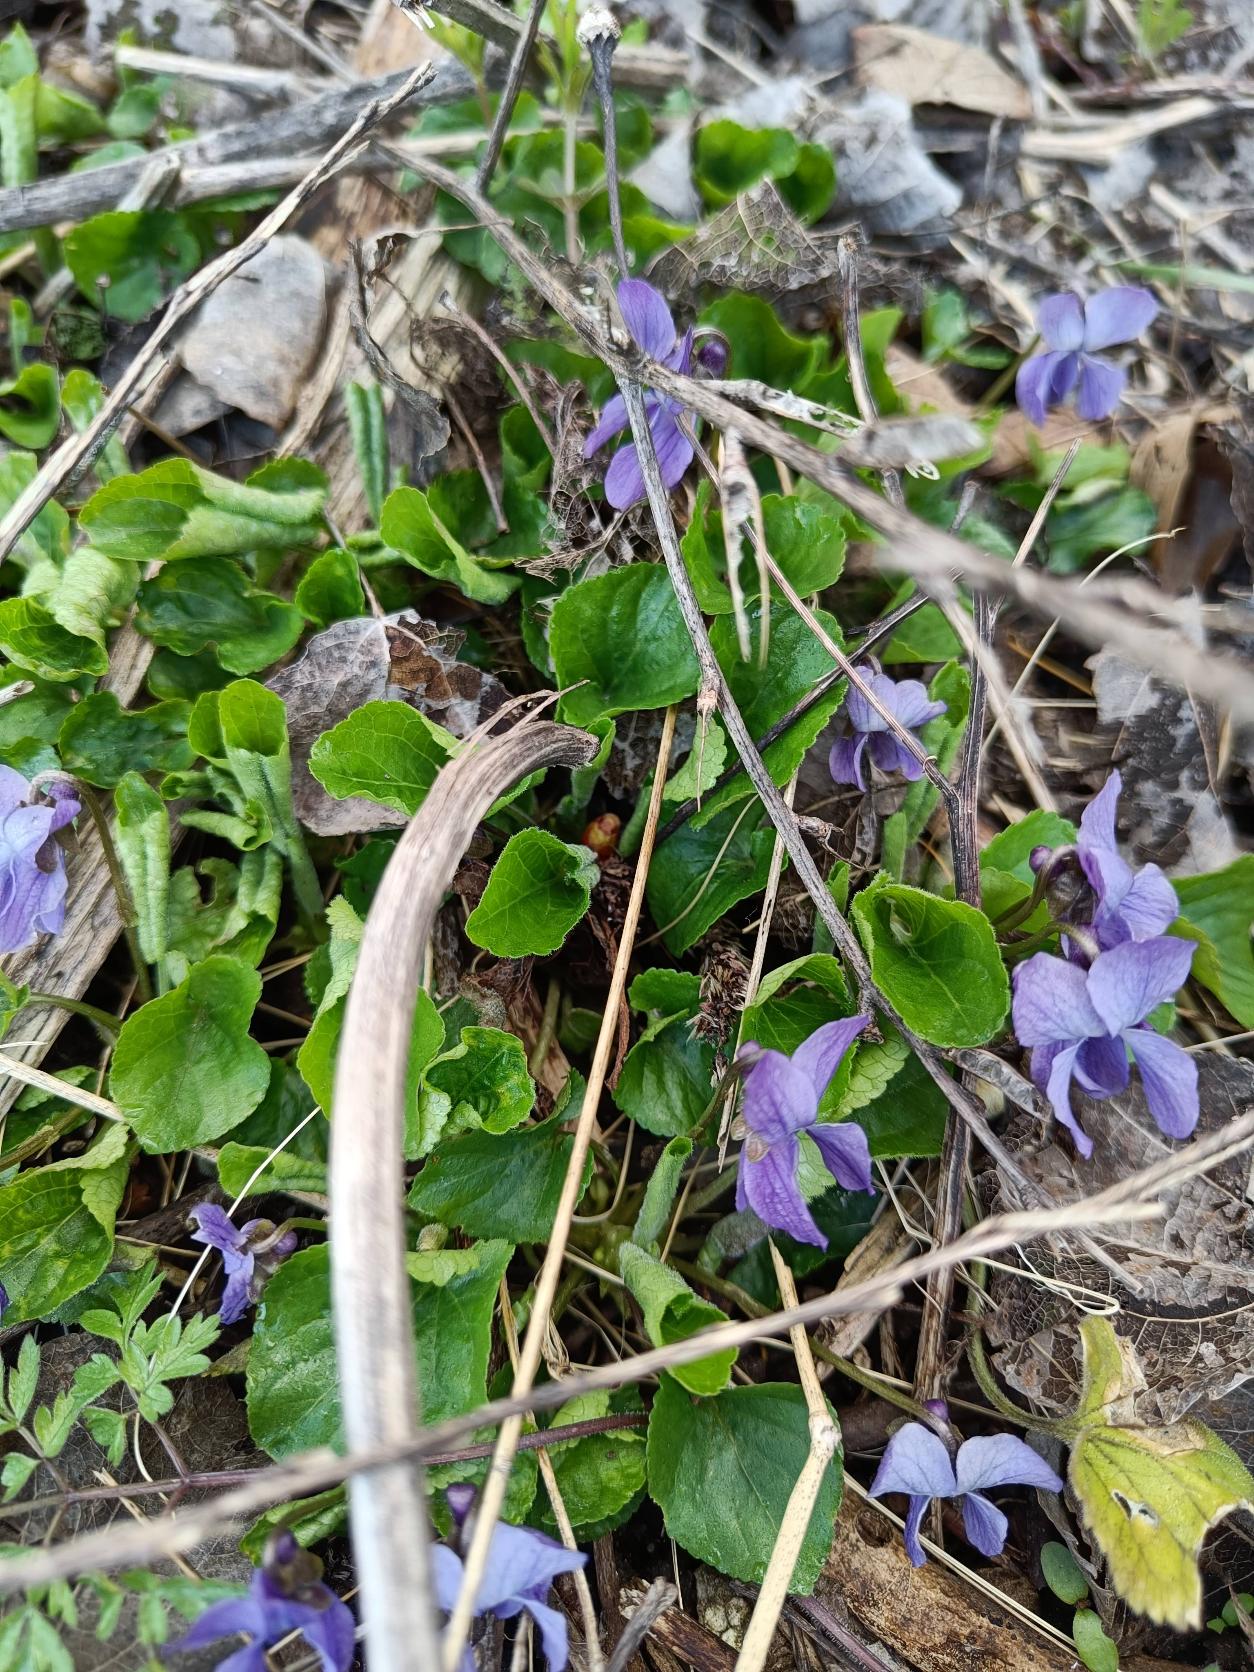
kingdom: Plantae
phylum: Tracheophyta
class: Magnoliopsida
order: Malpighiales
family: Violaceae
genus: Viola
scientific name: Viola odorata
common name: Marts-viol
